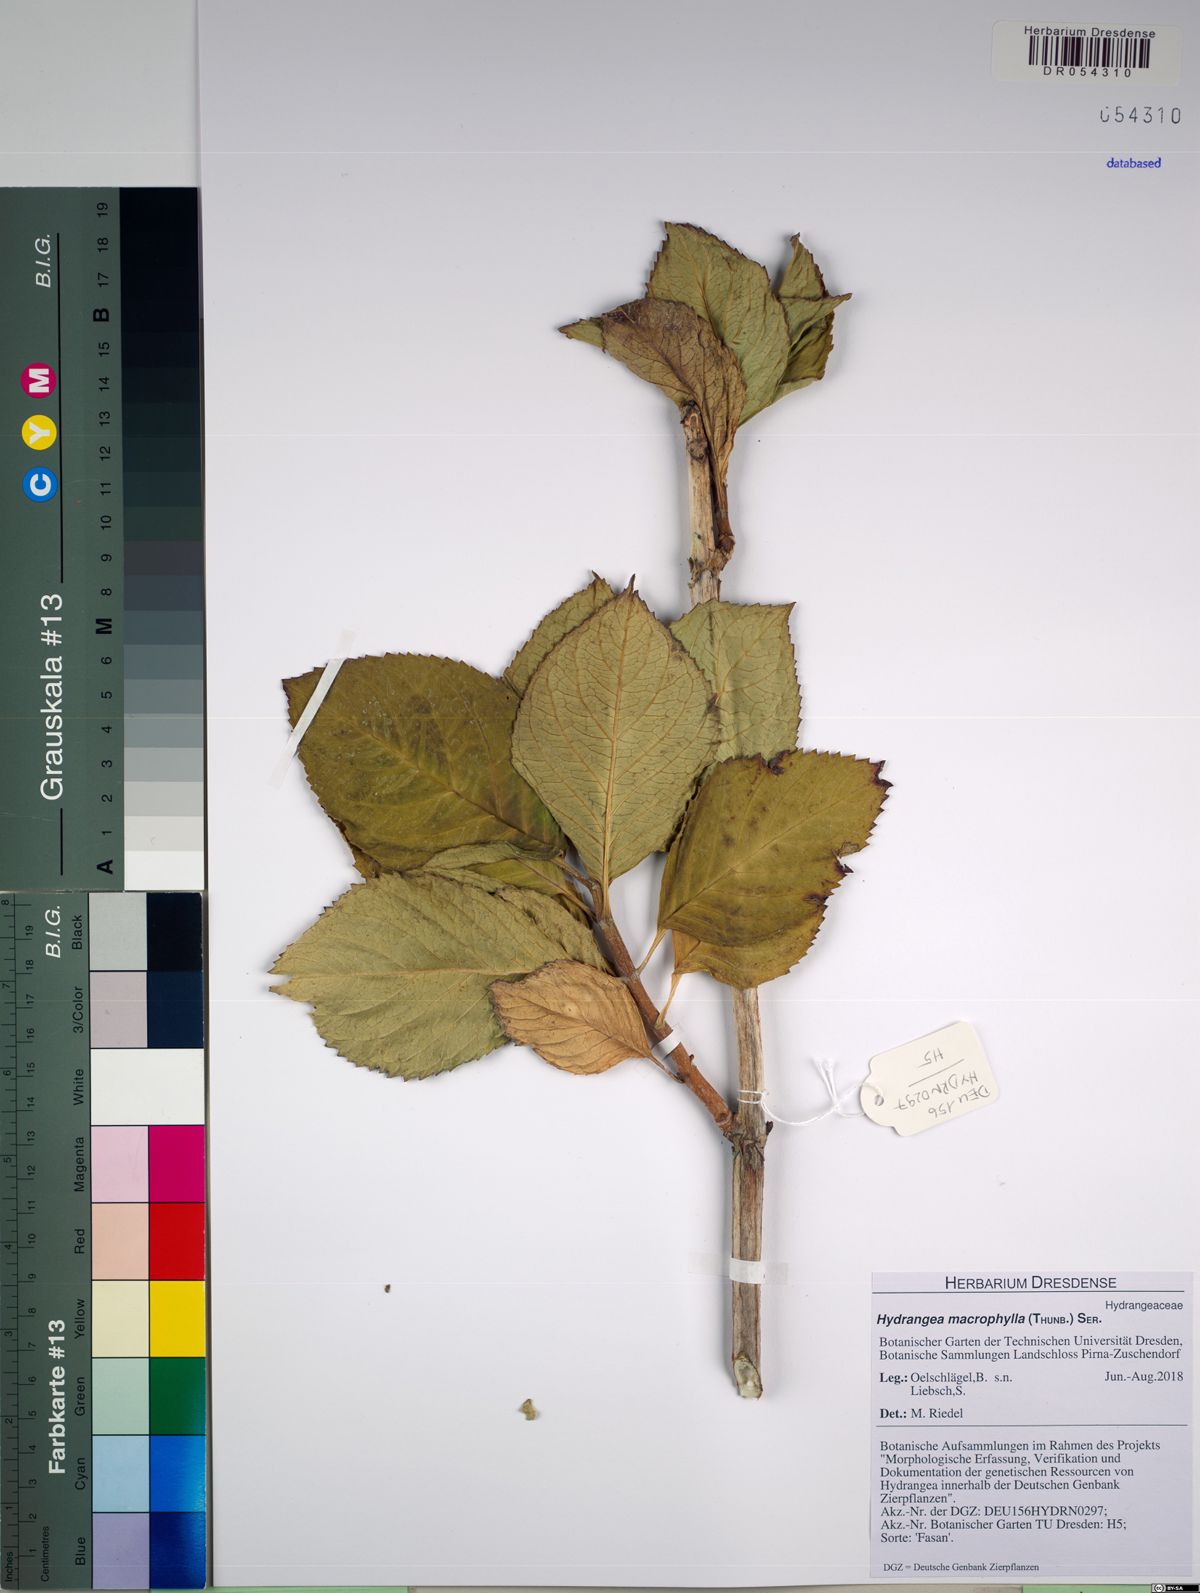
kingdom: Plantae
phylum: Tracheophyta
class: Magnoliopsida
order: Cornales
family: Hydrangeaceae
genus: Hydrangea
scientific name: Hydrangea macrophylla
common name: Hydrangea
